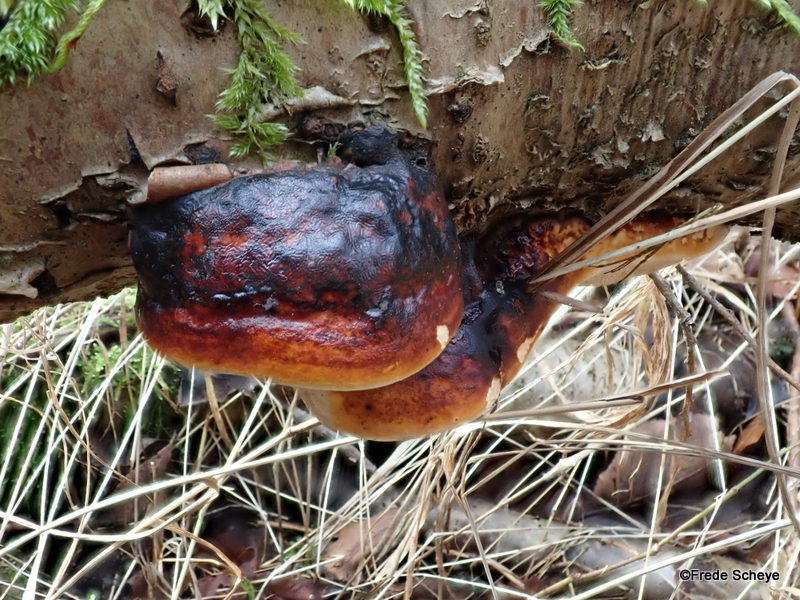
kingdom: Fungi
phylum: Basidiomycota
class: Agaricomycetes
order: Polyporales
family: Fomitopsidaceae
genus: Fomitopsis
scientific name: Fomitopsis pinicola
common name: randbæltet hovporesvamp
